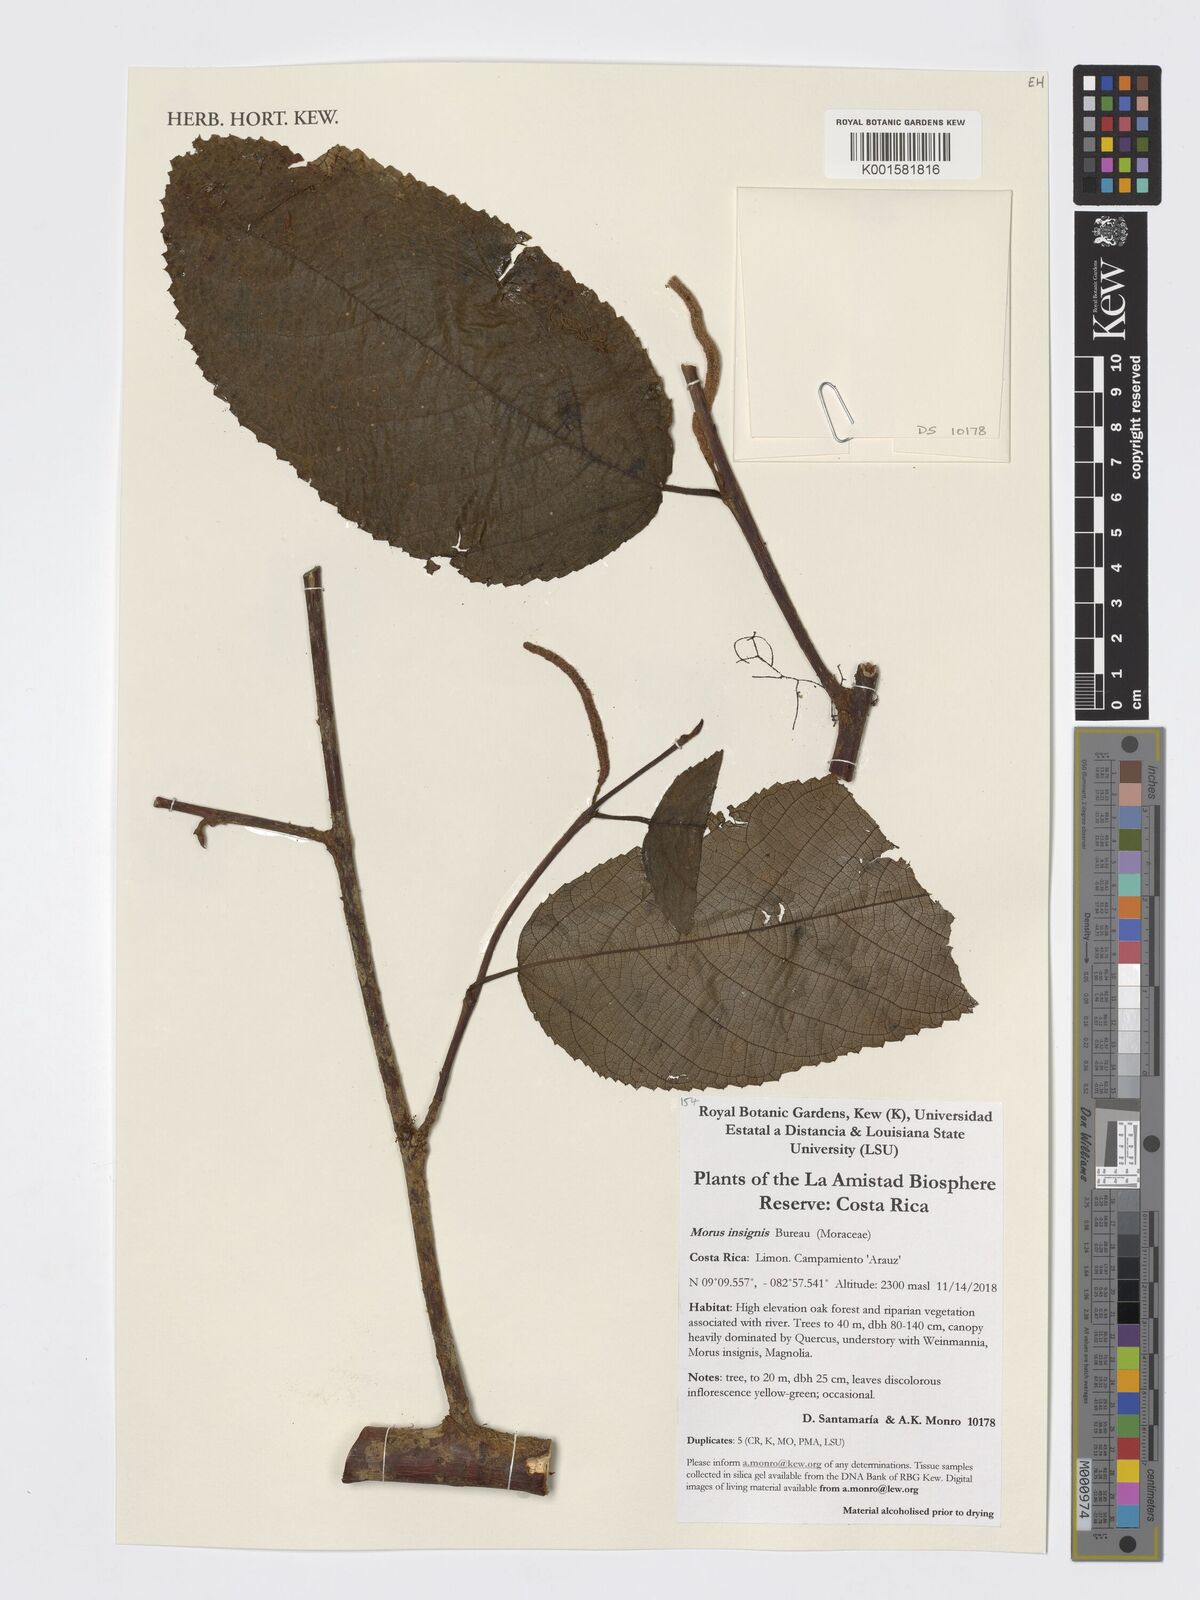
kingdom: Plantae
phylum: Tracheophyta
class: Magnoliopsida
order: Rosales
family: Moraceae
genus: Paratrophis
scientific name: Paratrophis insignis
